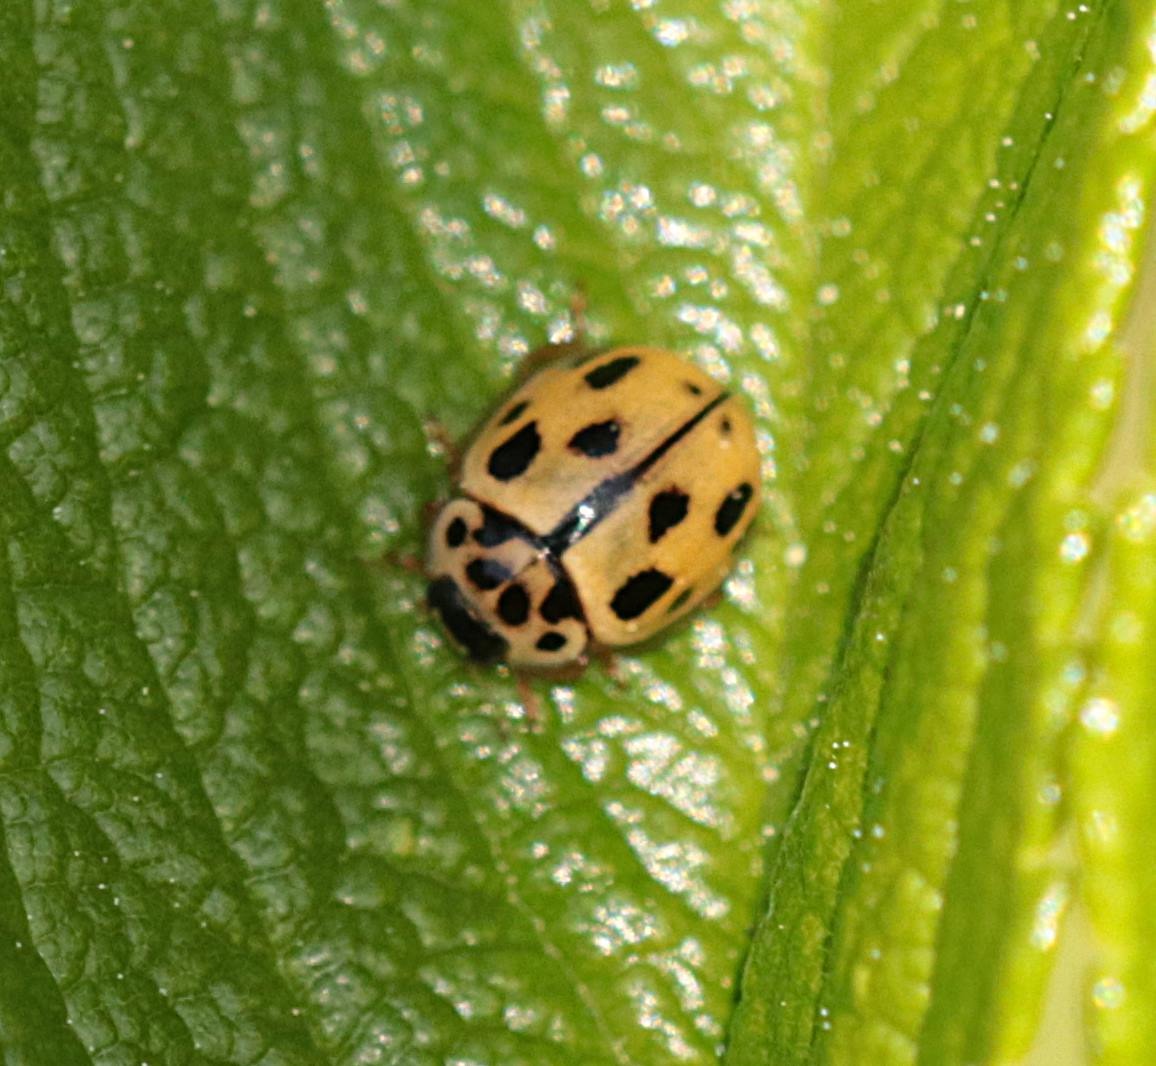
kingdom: Animalia
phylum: Arthropoda
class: Insecta
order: Coleoptera
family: Coccinellidae
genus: Propylaea
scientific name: Propylaea quatuordecimpunctata
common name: Skakbræt
